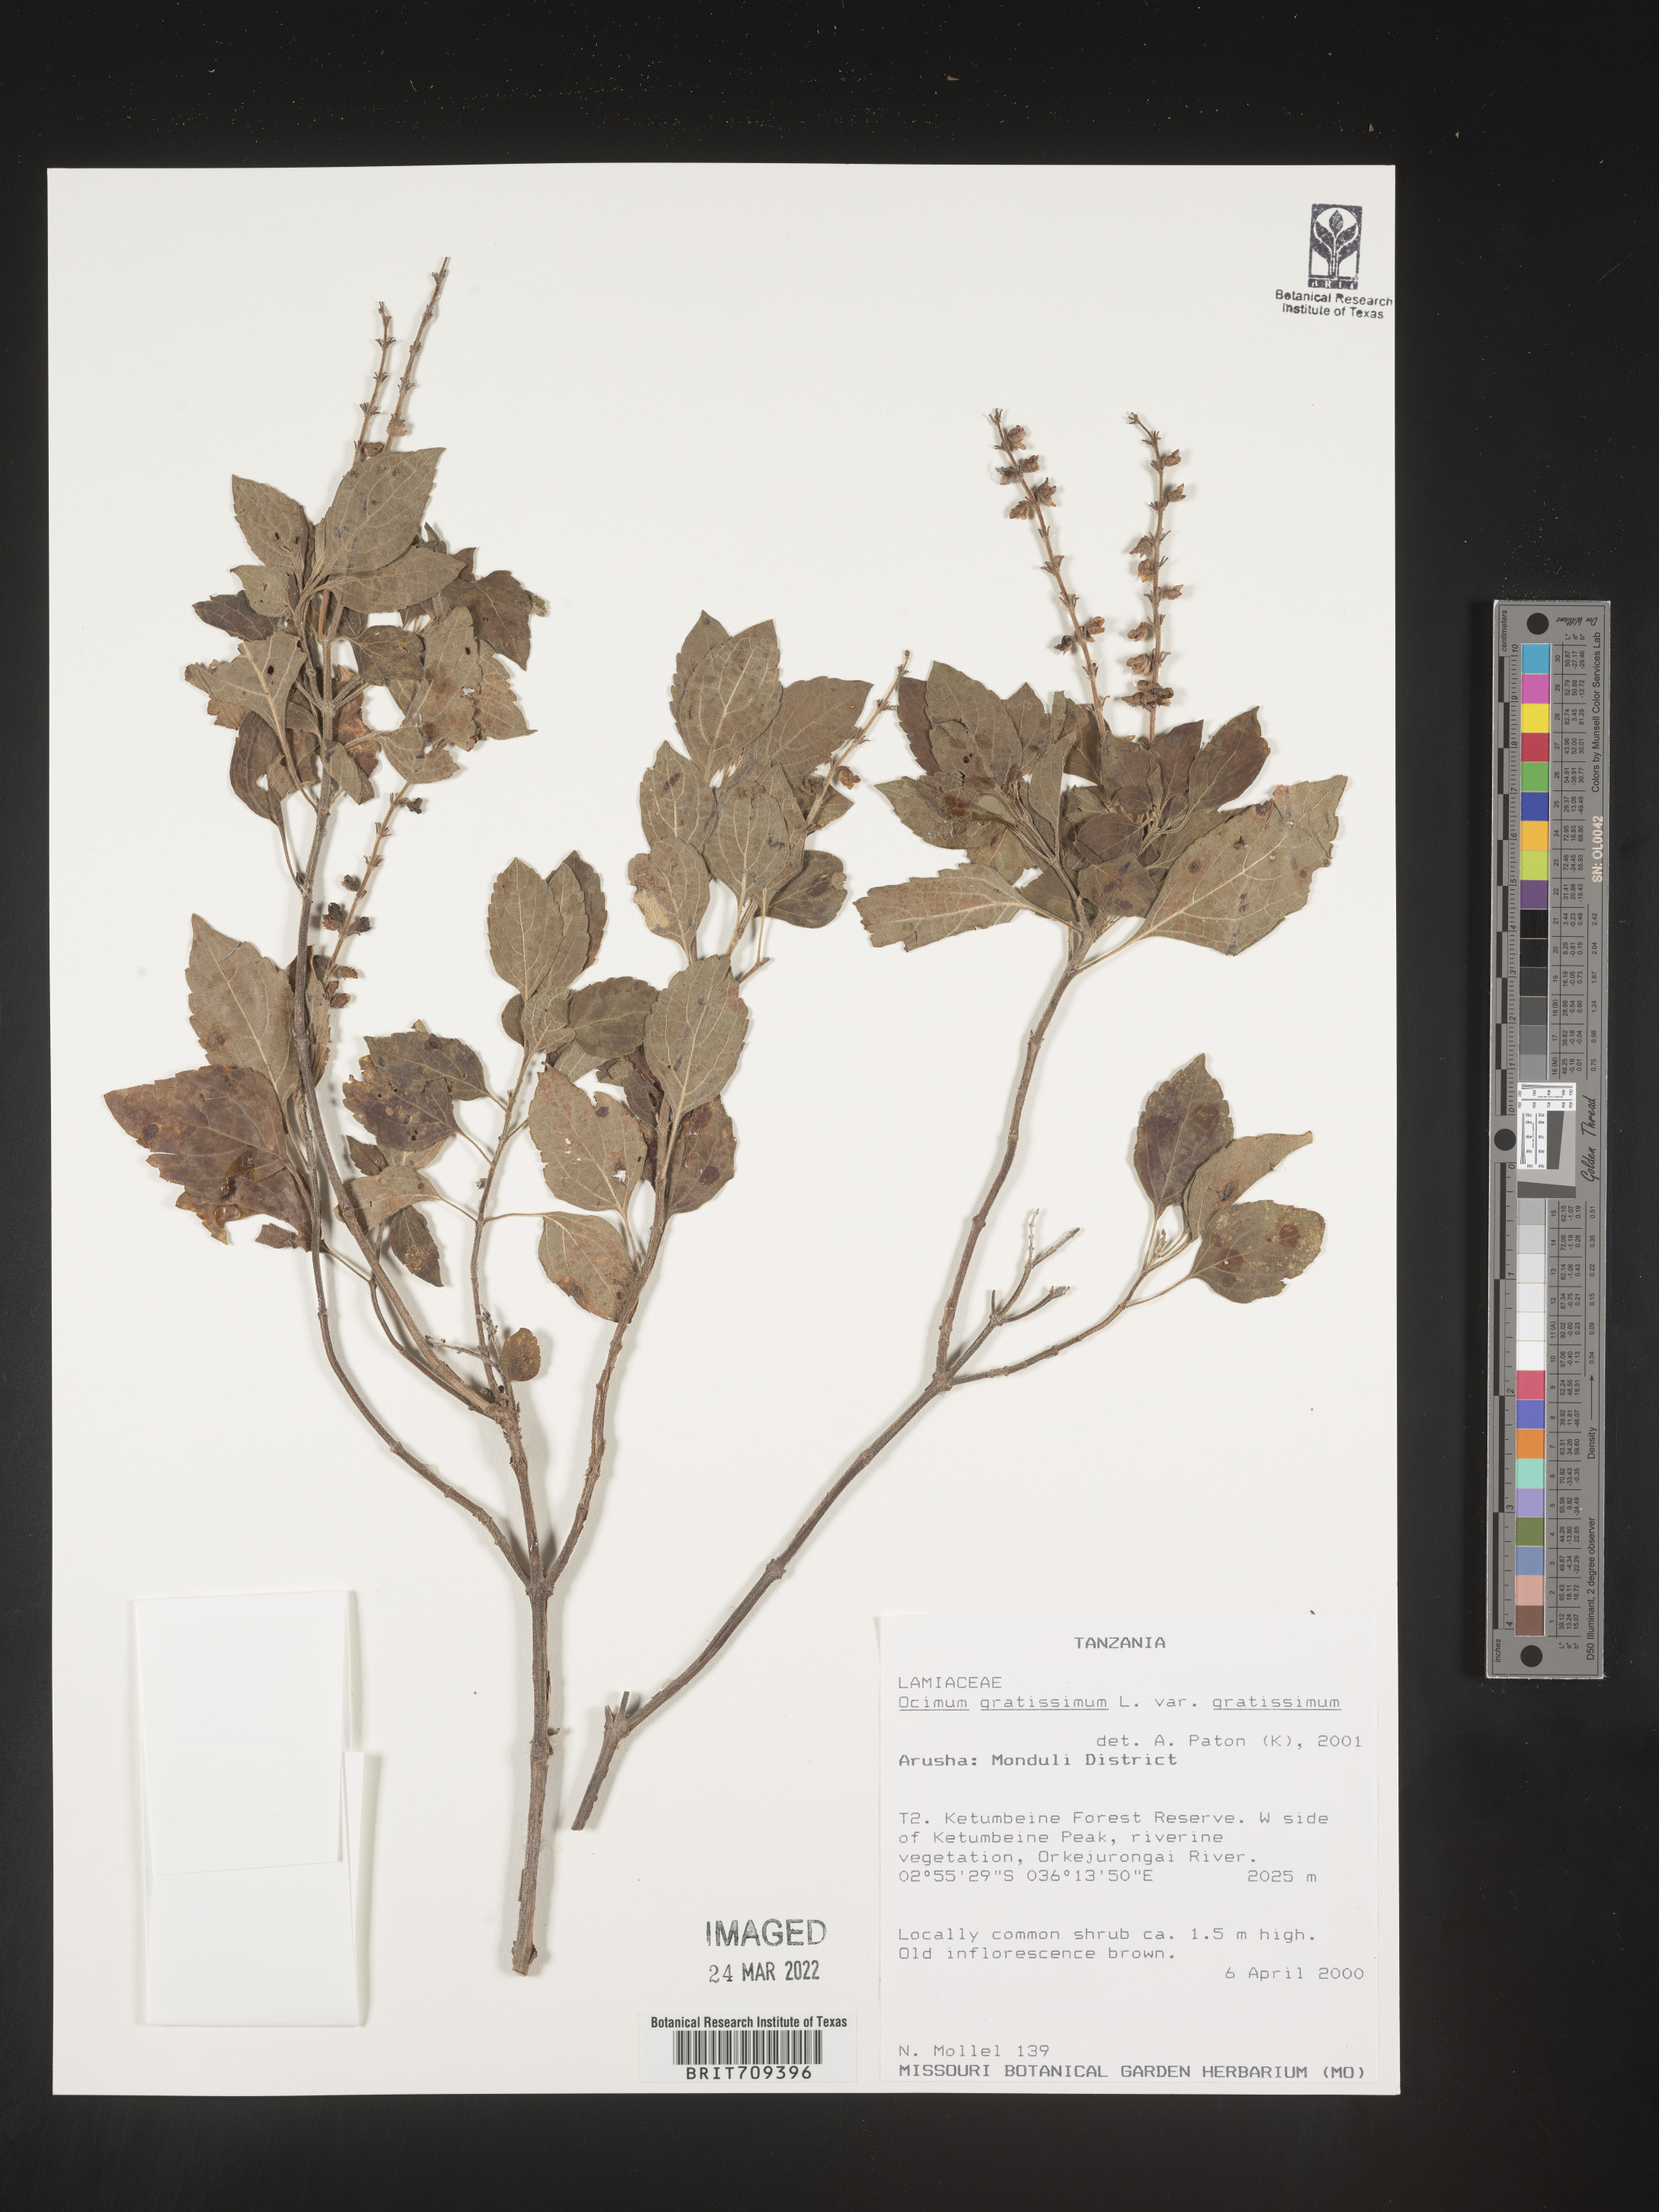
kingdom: Plantae
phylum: Tracheophyta
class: Magnoliopsida
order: Lamiales
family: Lamiaceae
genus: Ocimum
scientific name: Ocimum
